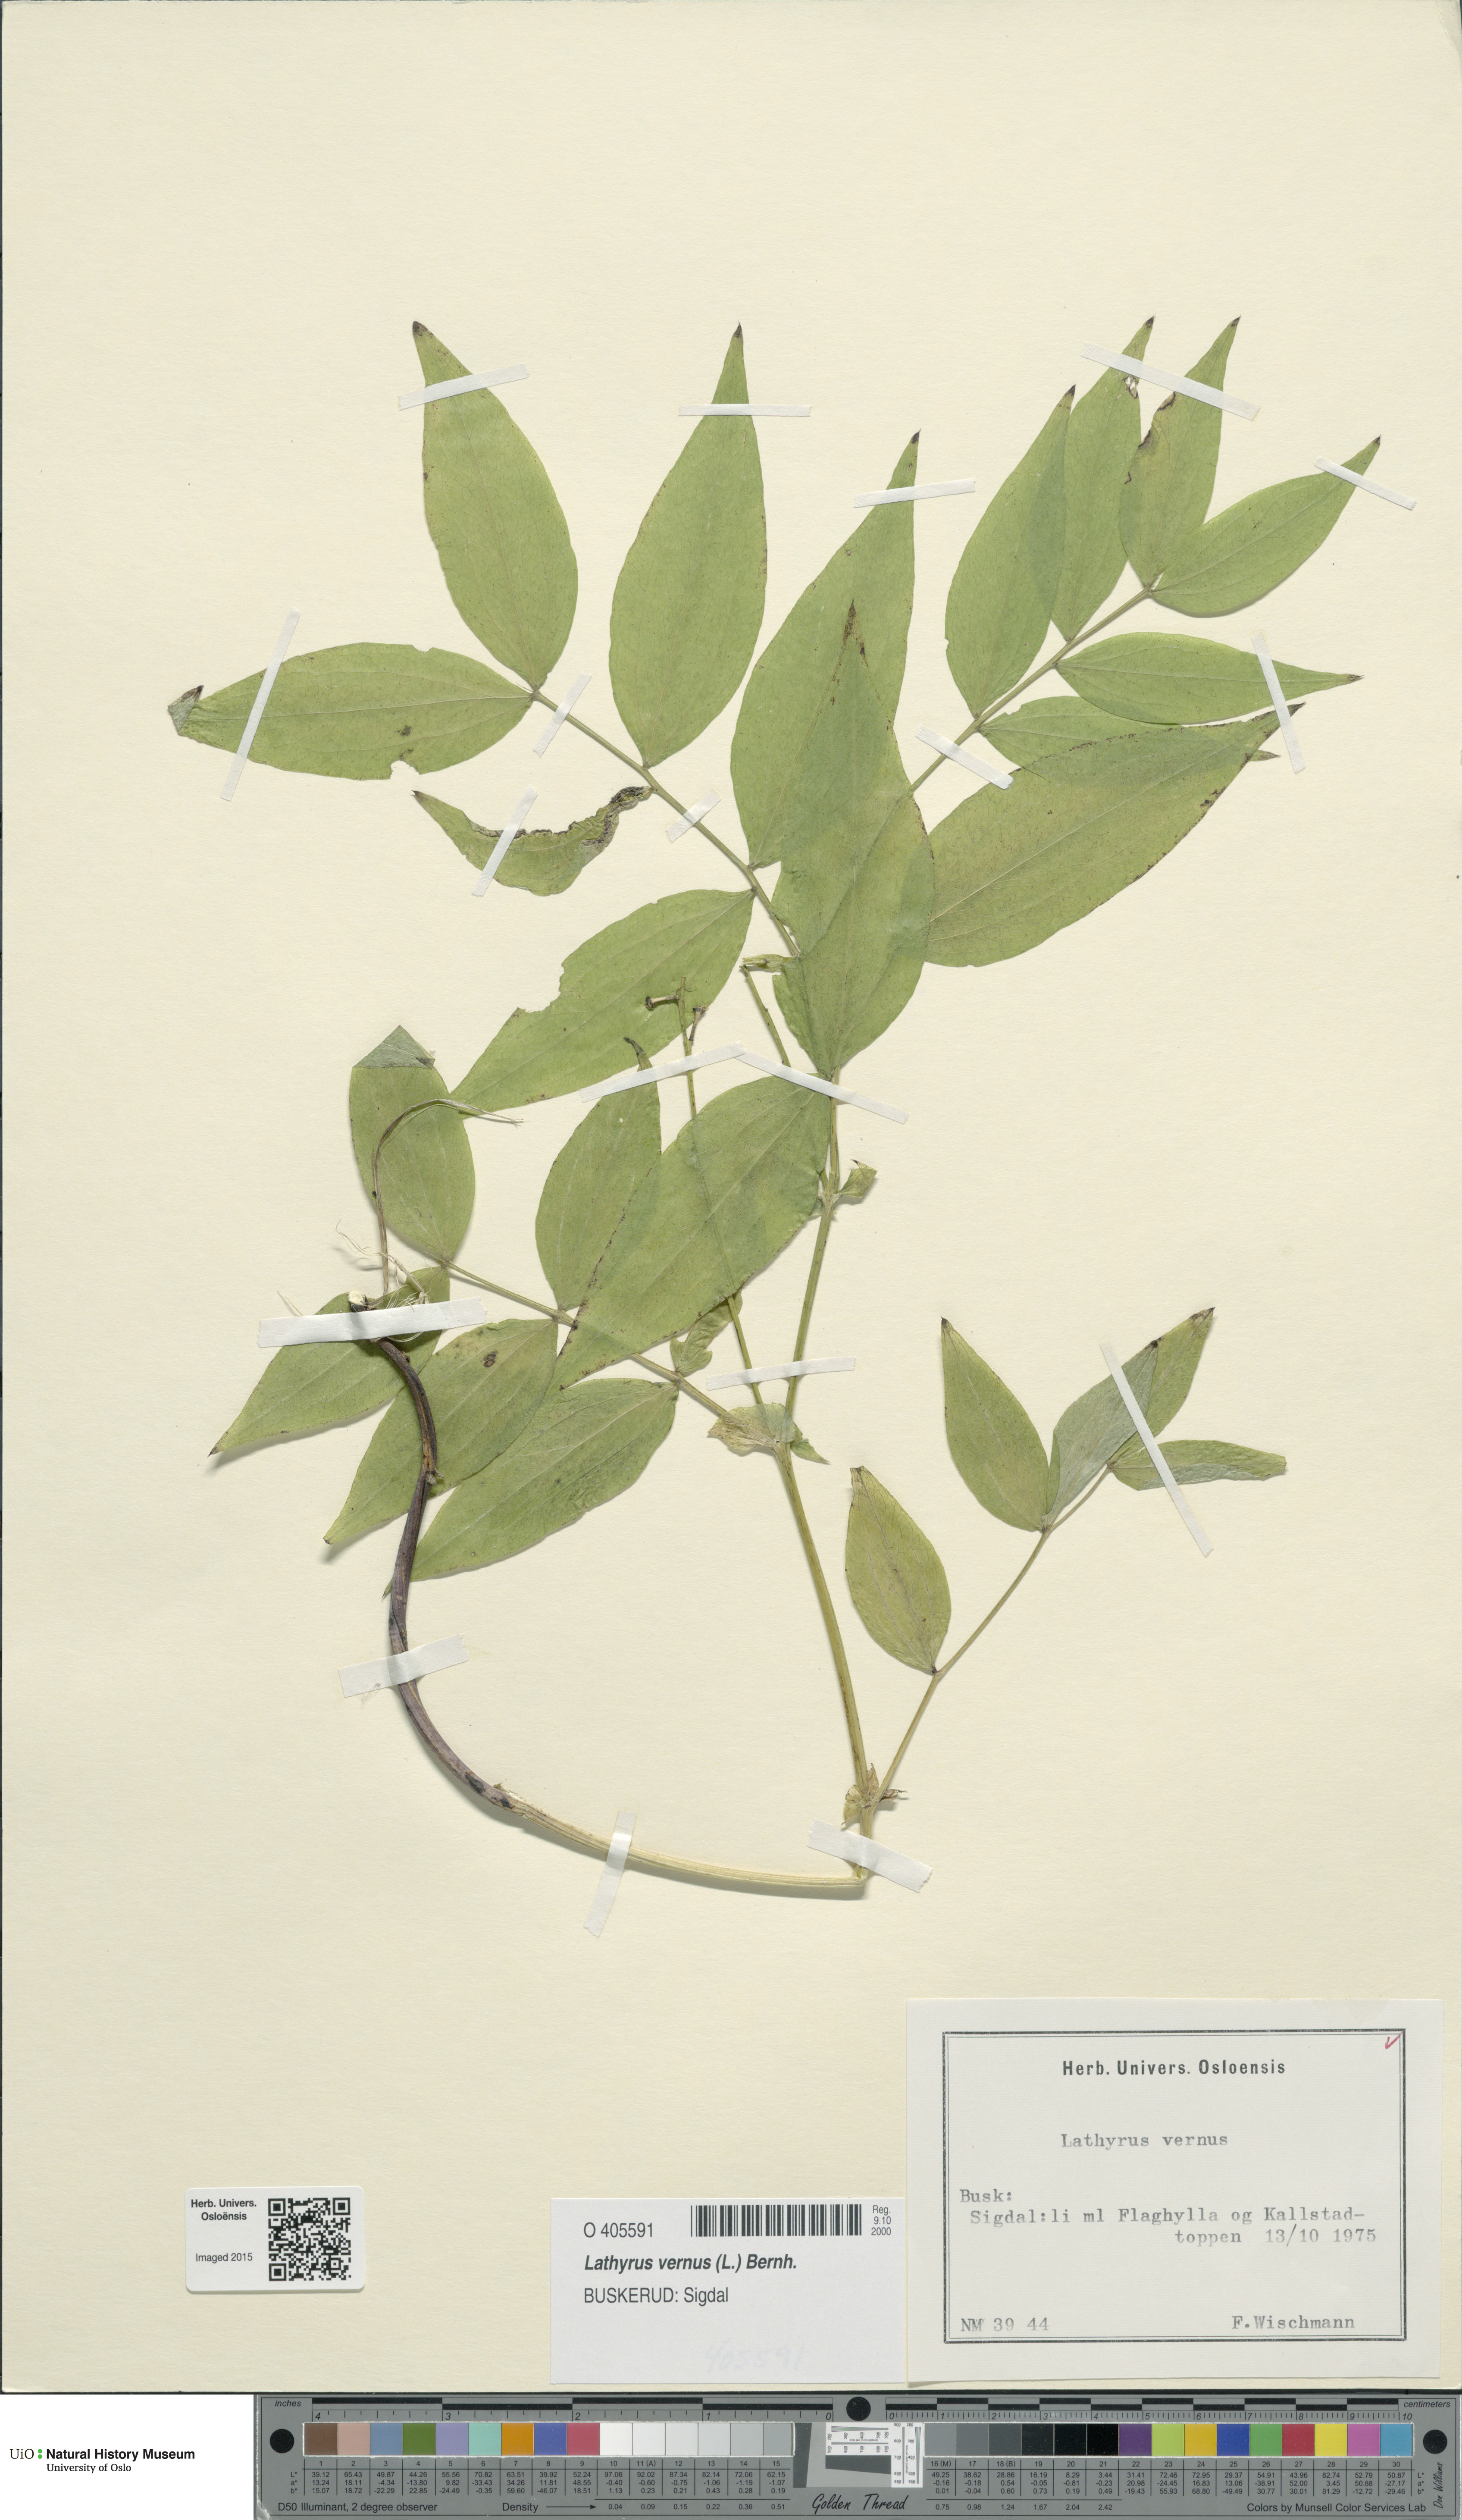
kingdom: Plantae
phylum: Tracheophyta
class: Magnoliopsida
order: Fabales
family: Fabaceae
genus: Lathyrus
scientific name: Lathyrus vernus
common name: Spring pea
